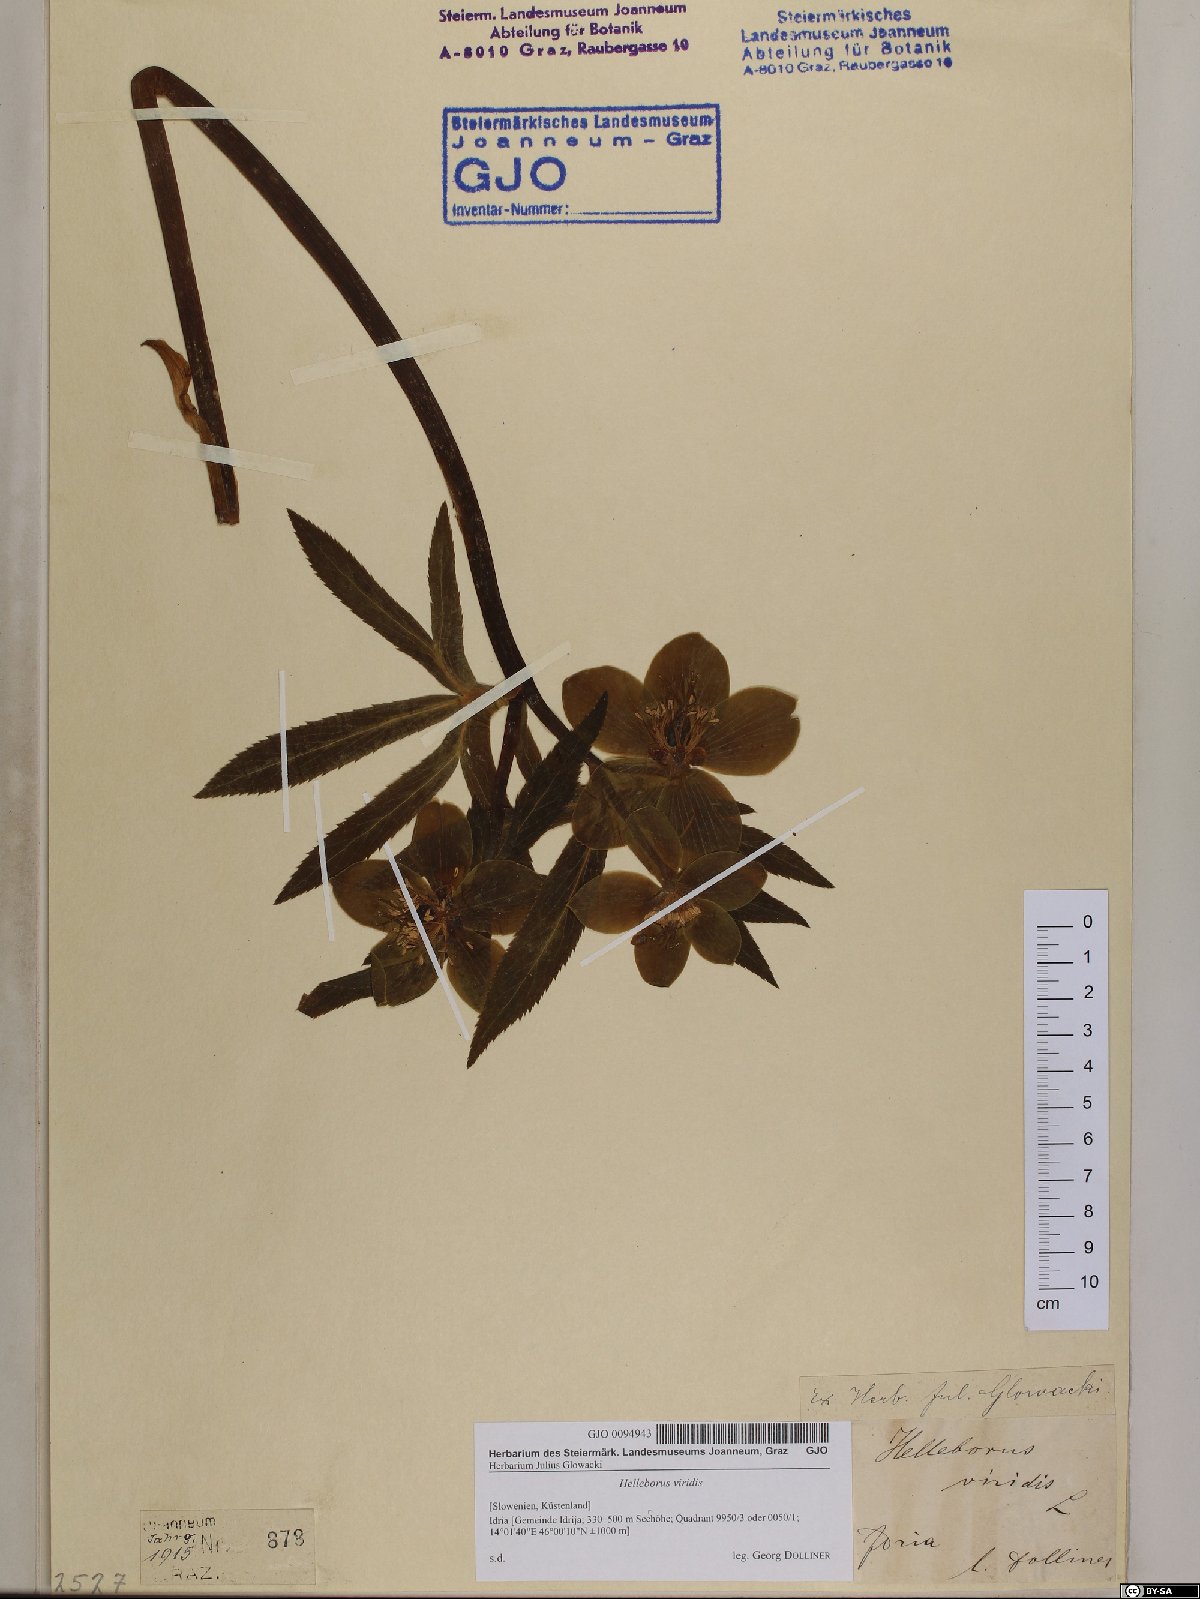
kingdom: Plantae
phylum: Tracheophyta
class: Magnoliopsida
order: Ranunculales
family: Ranunculaceae
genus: Helleborus
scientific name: Helleborus viridis
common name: Green hellebore
